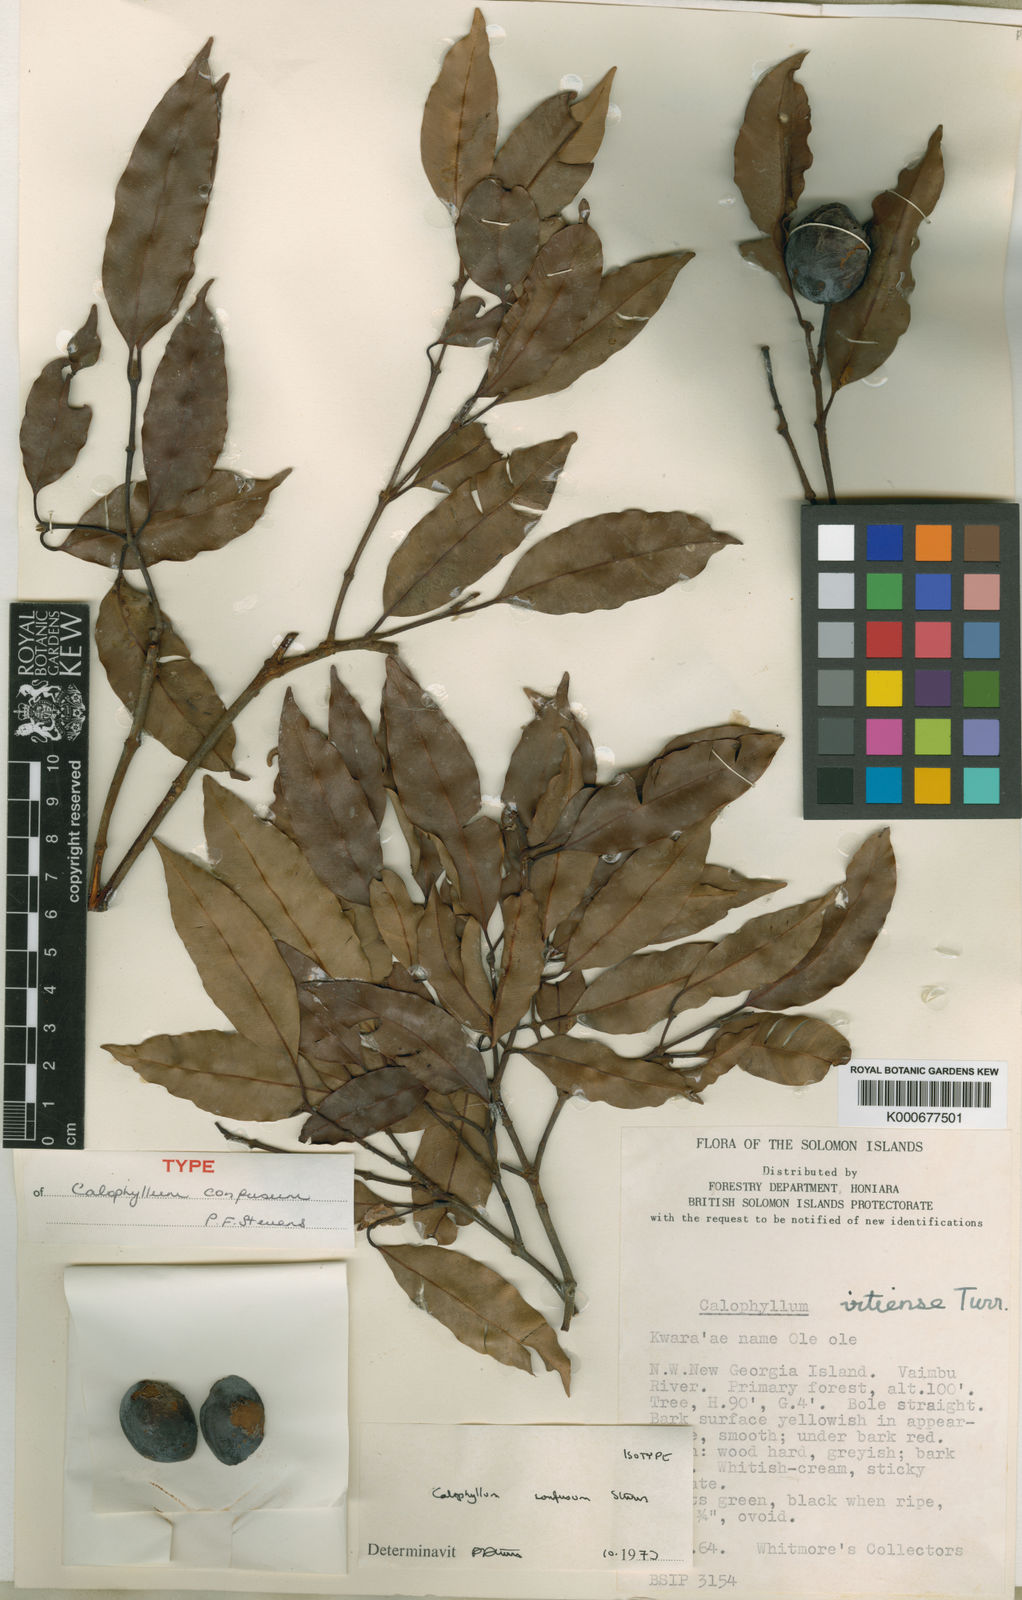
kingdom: Plantae
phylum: Tracheophyta
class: Magnoliopsida
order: Malpighiales
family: Calophyllaceae
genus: Calophyllum
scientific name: Calophyllum confusum
